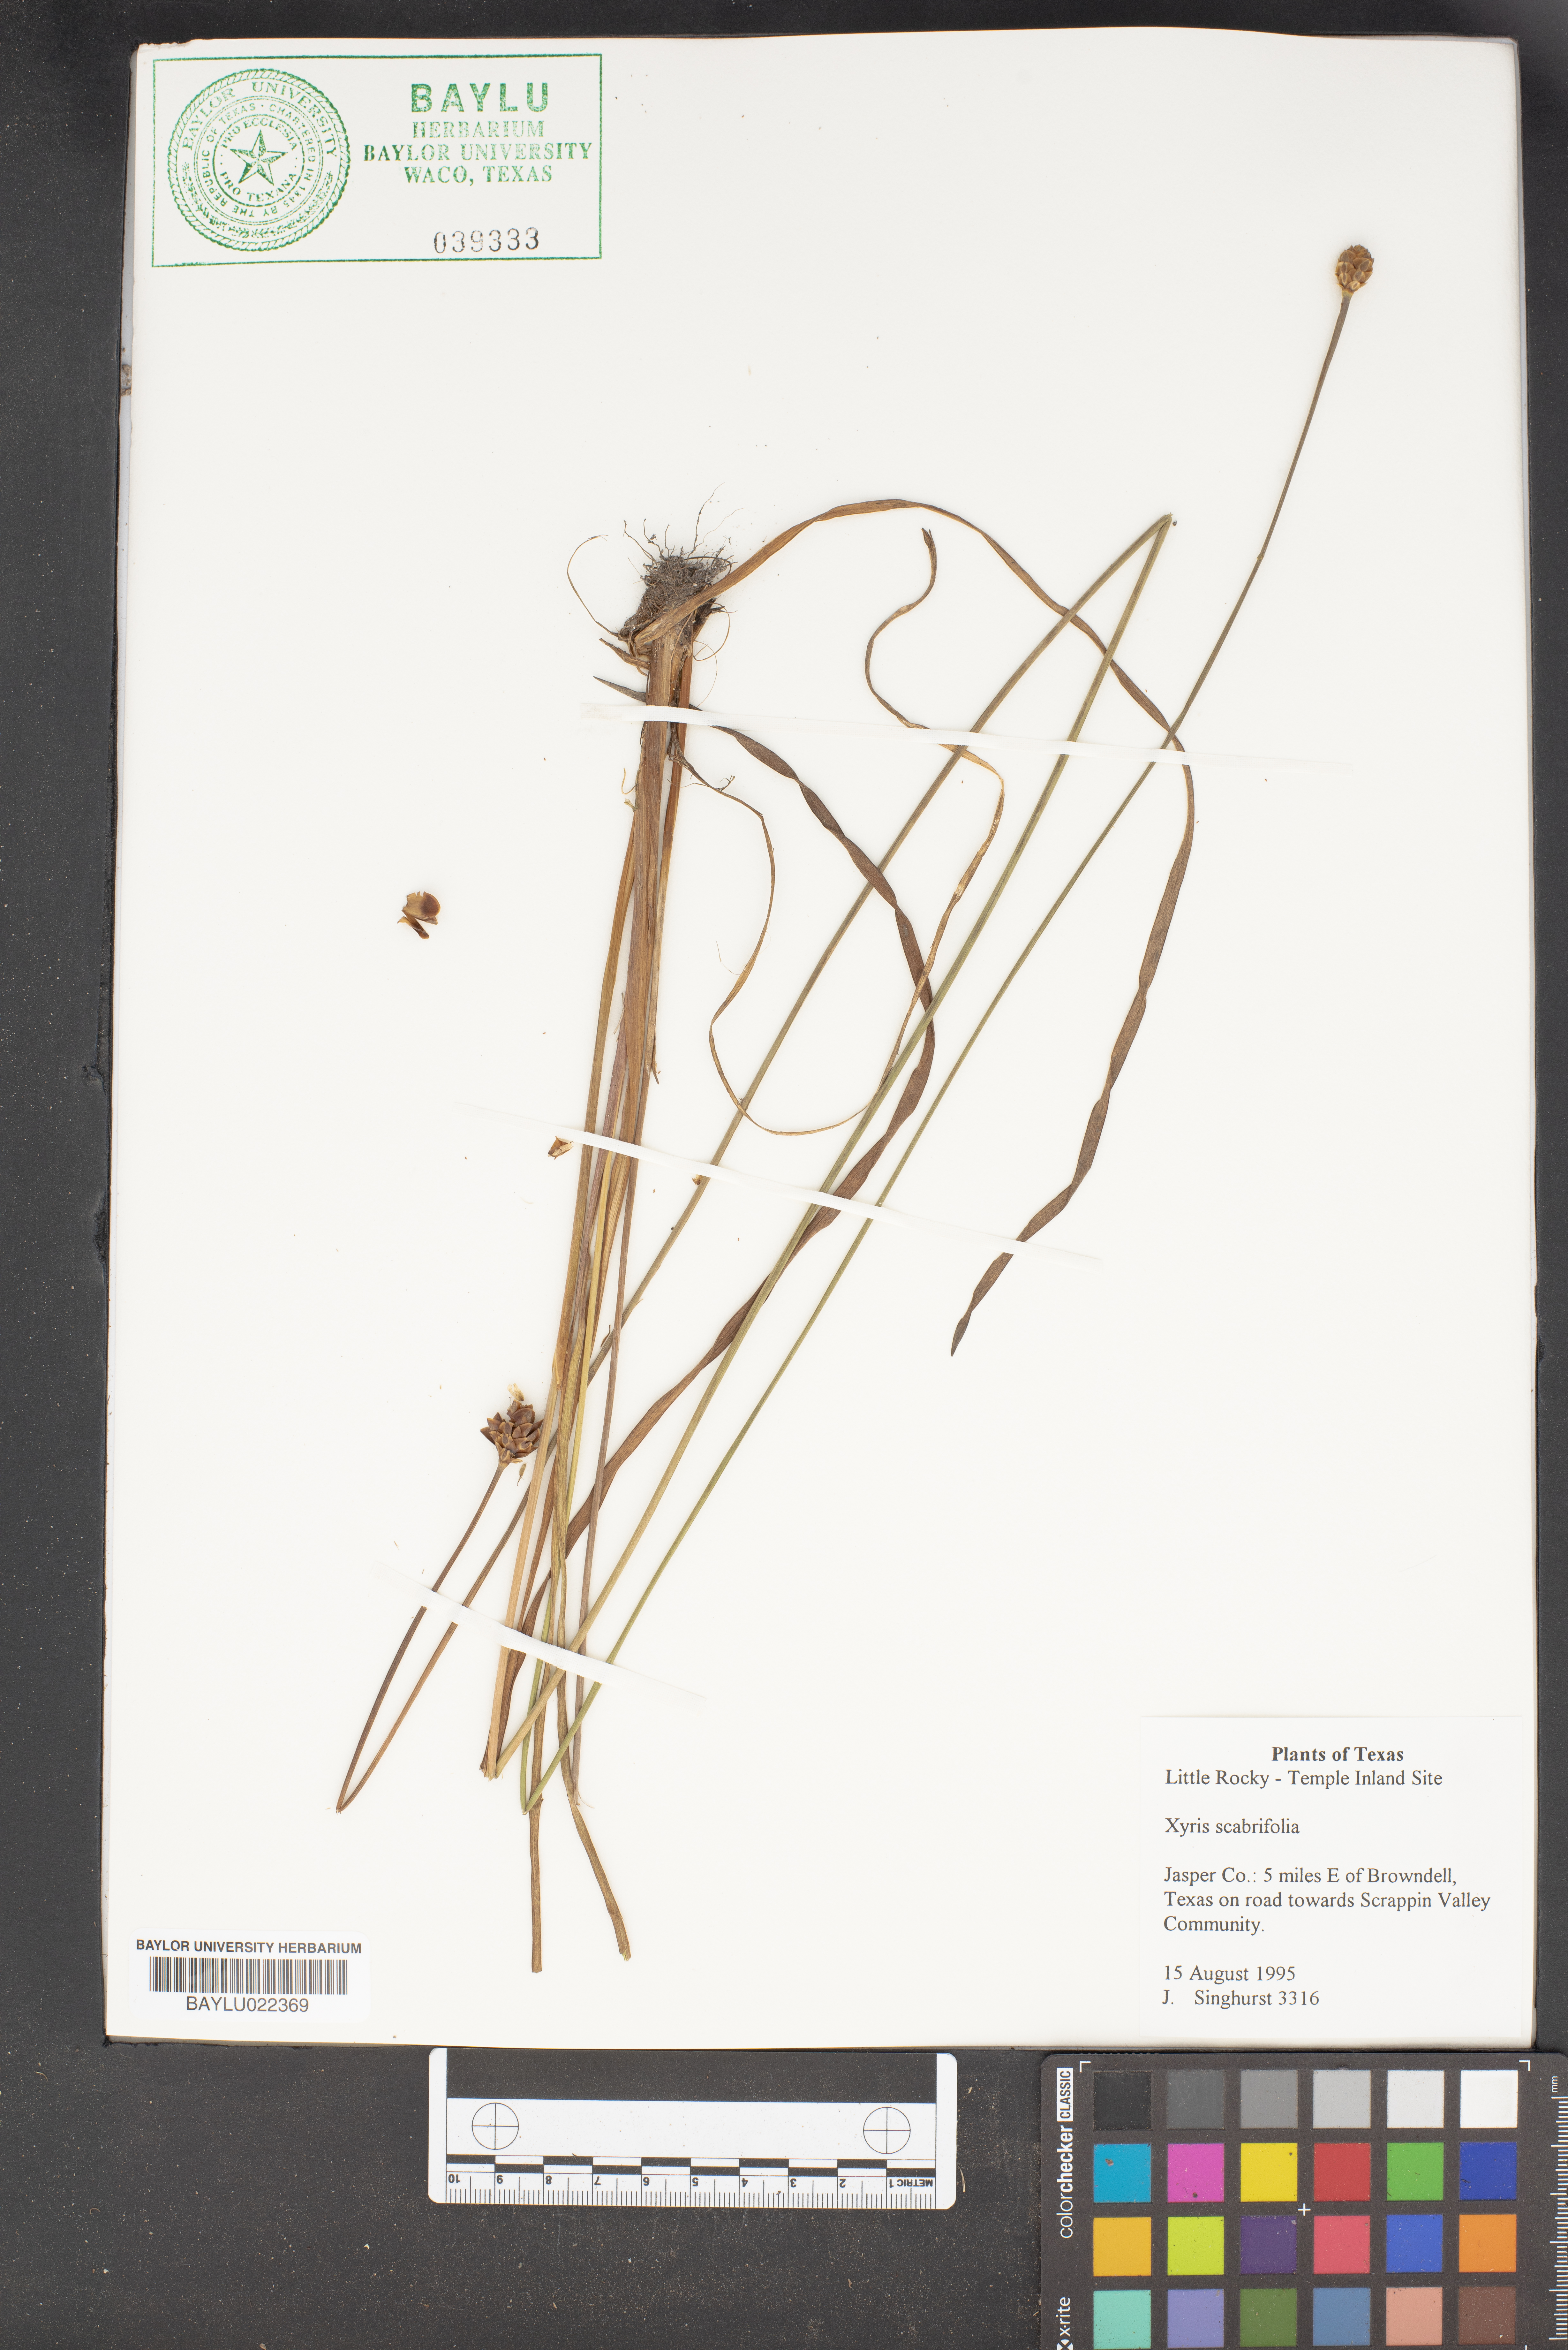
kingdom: Plantae
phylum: Tracheophyta
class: Liliopsida
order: Poales
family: Xyridaceae
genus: Xyris
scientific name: Xyris scabrifolia
